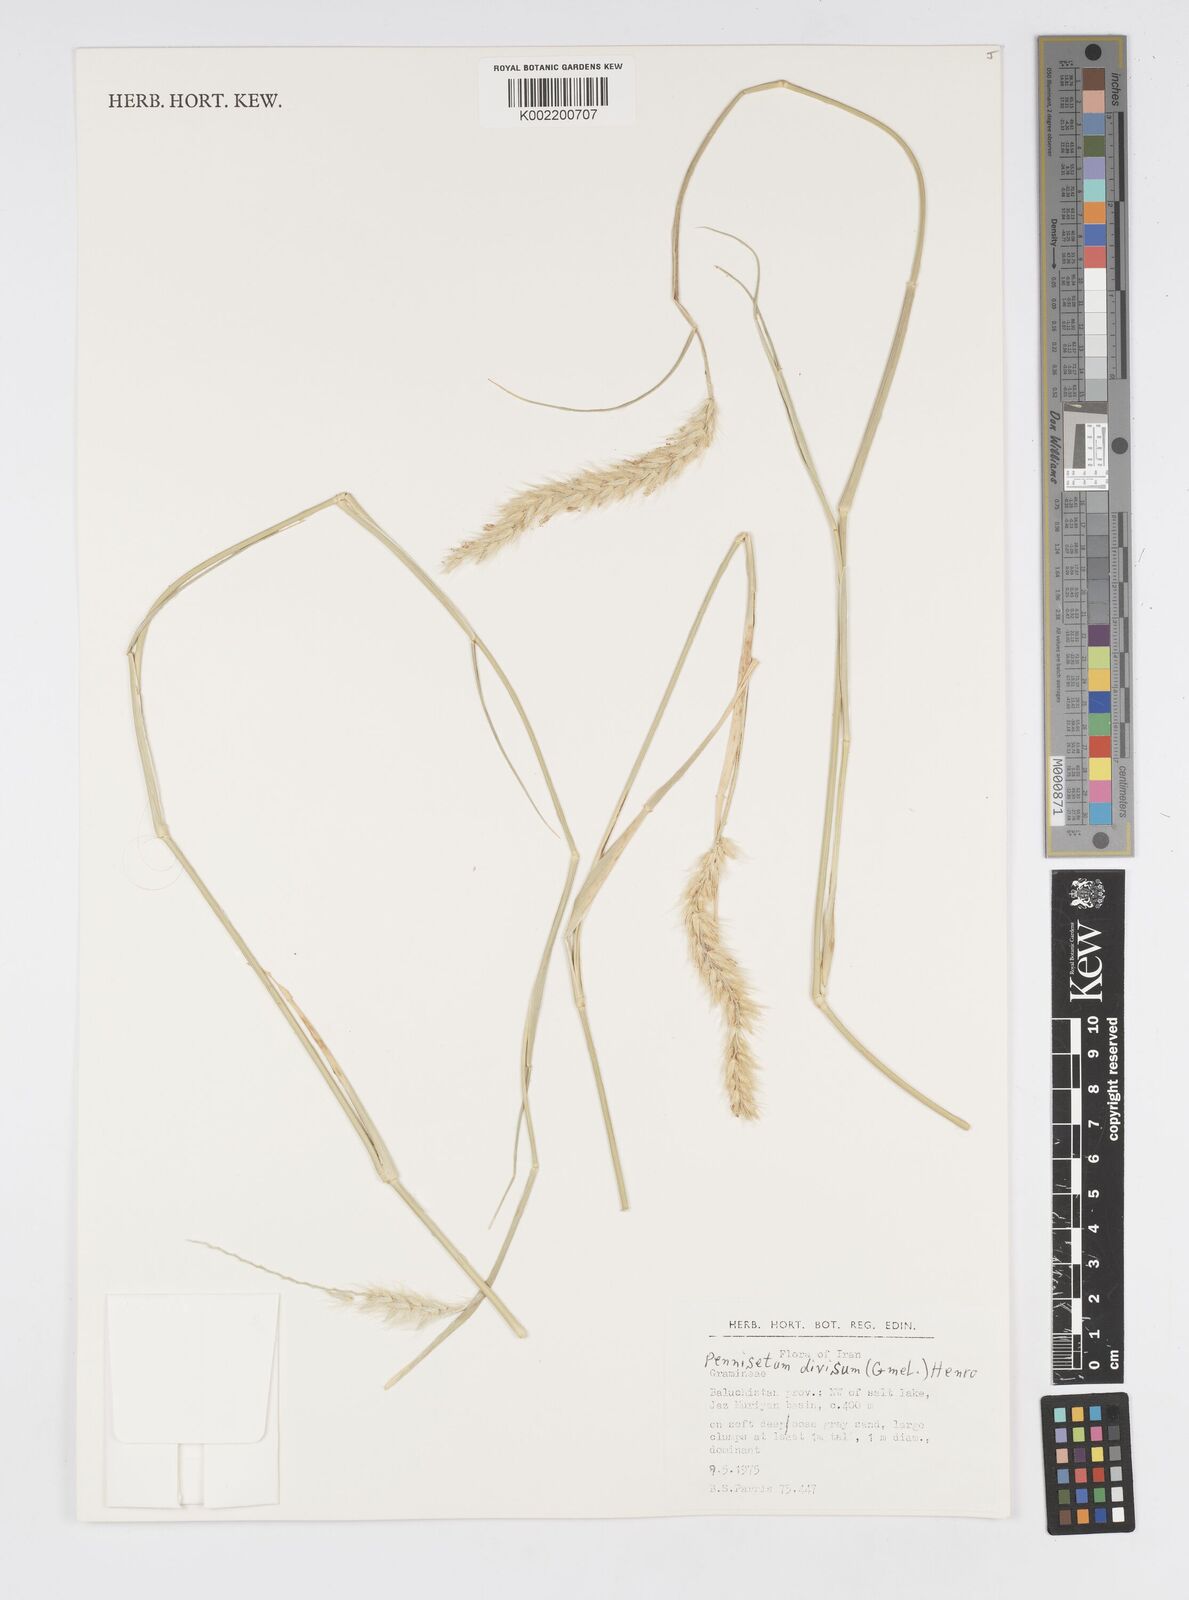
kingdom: Plantae
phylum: Tracheophyta
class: Liliopsida
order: Poales
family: Poaceae
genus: Cenchrus
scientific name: Cenchrus divisus
